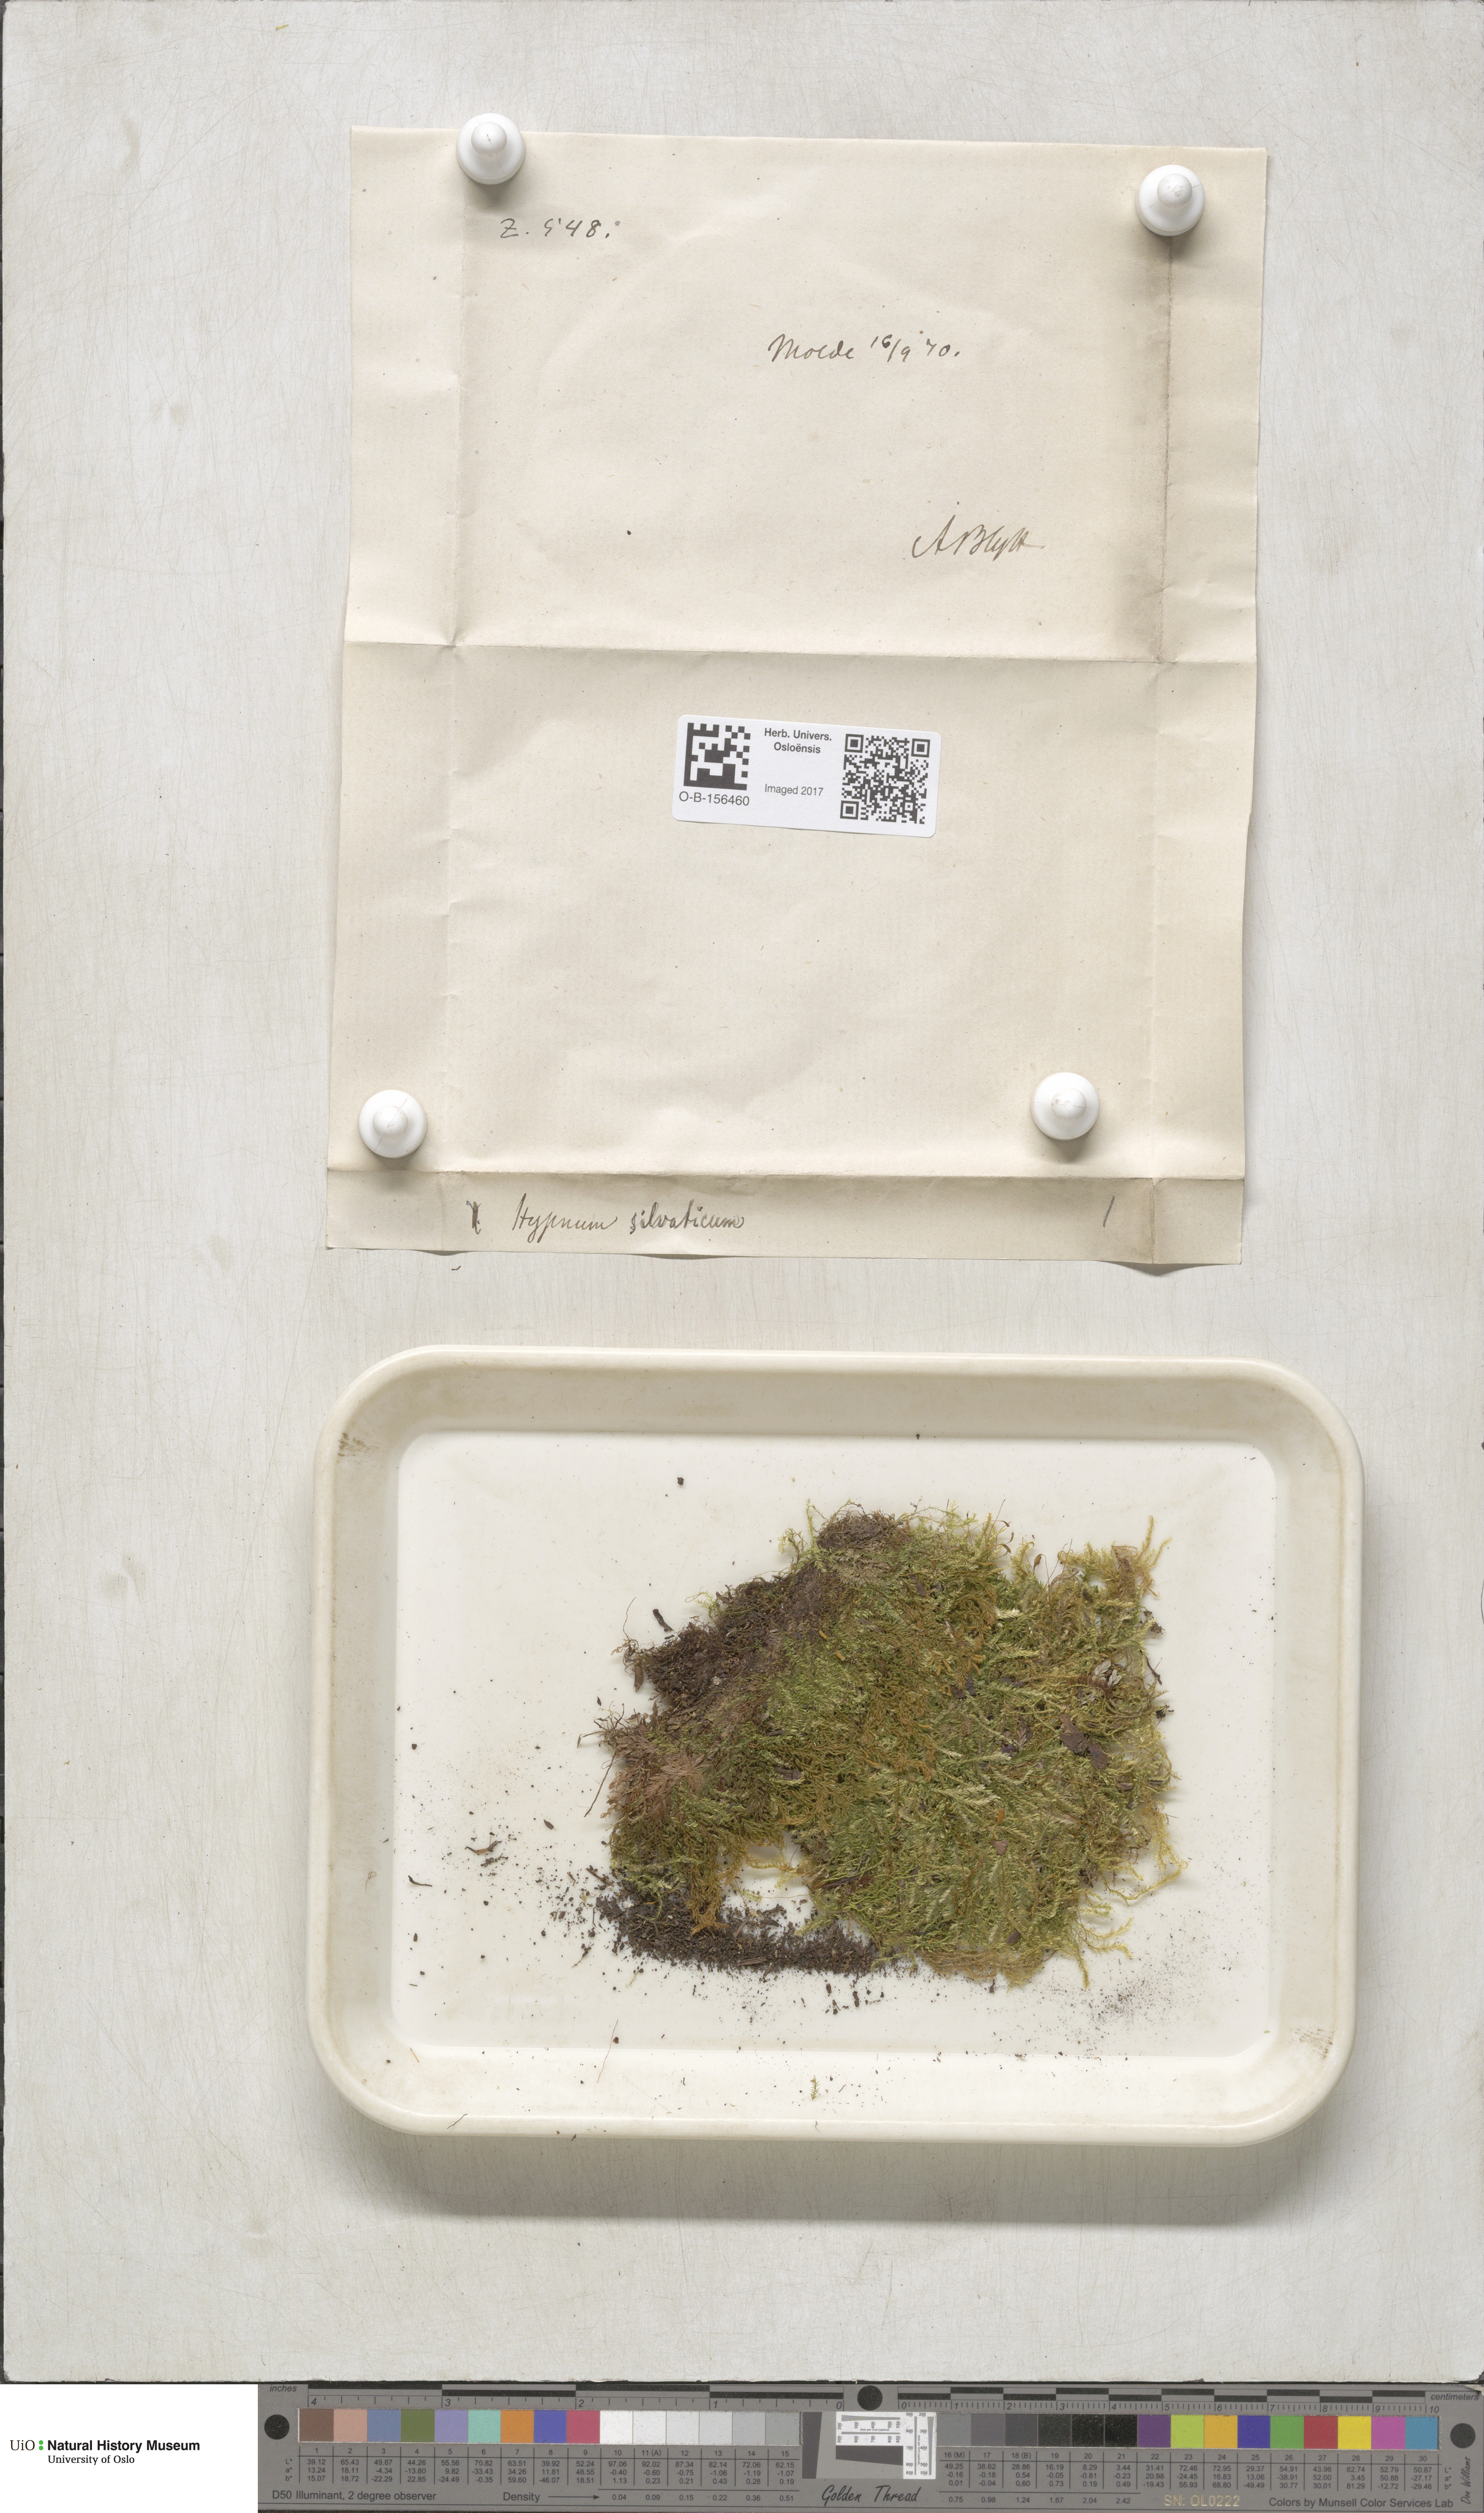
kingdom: Plantae
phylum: Bryophyta
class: Bryopsida
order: Hypnales
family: Plagiotheciaceae
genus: Plagiothecium
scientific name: Plagiothecium nemorale
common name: Woodsy silk-moss
